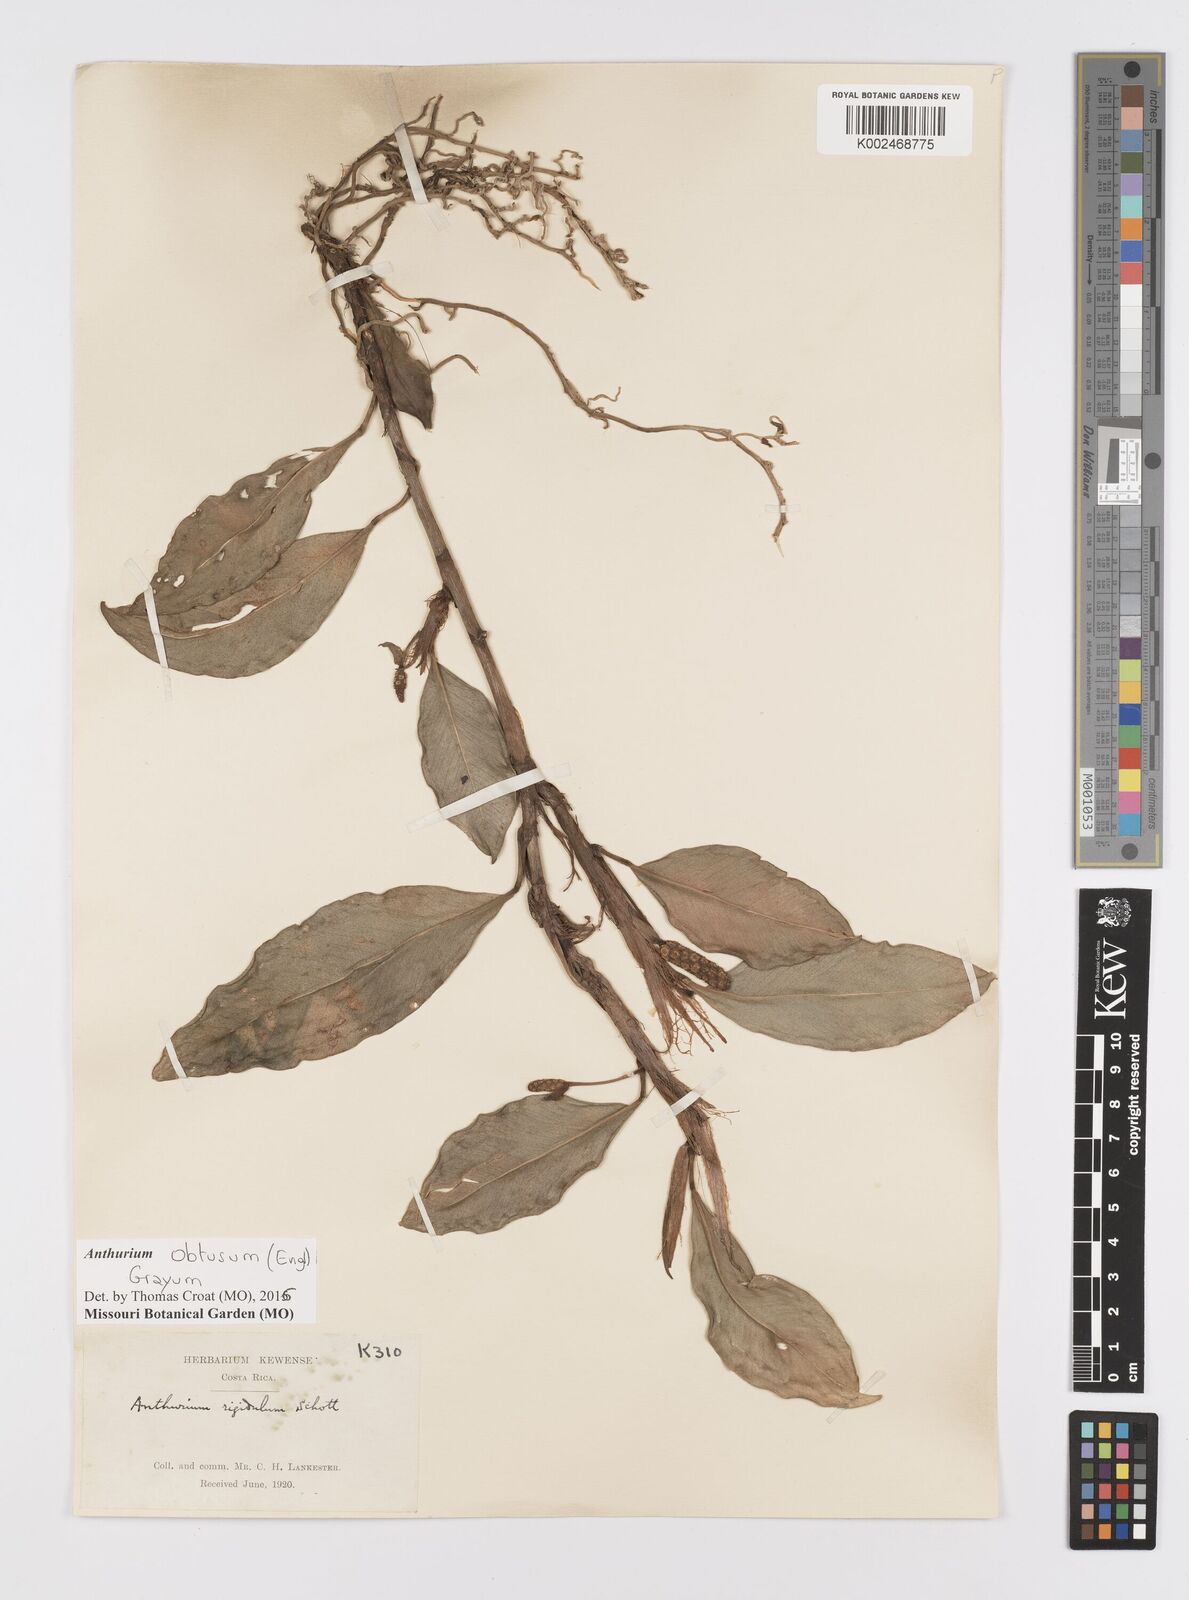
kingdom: Plantae
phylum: Tracheophyta
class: Liliopsida
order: Alismatales
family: Araceae
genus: Anthurium
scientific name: Anthurium obtusum
